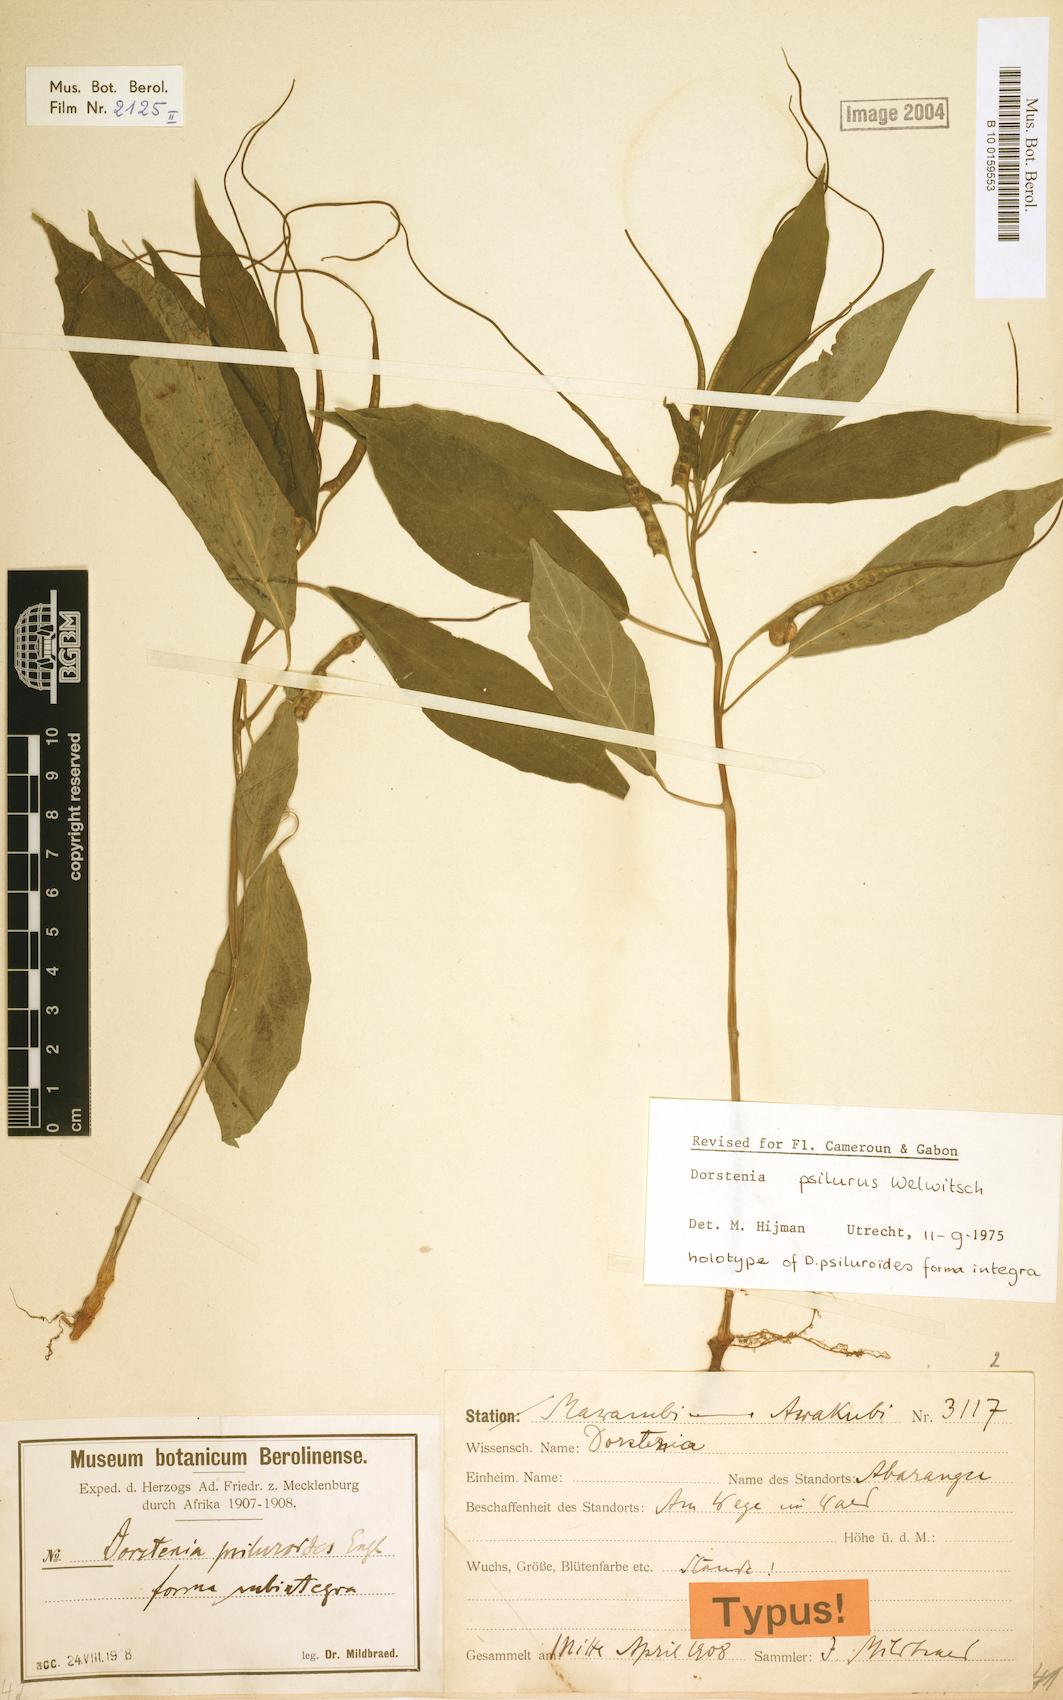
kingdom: Plantae
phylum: Tracheophyta
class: Magnoliopsida
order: Rosales
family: Moraceae
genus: Dorstenia
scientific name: Dorstenia psilurus
